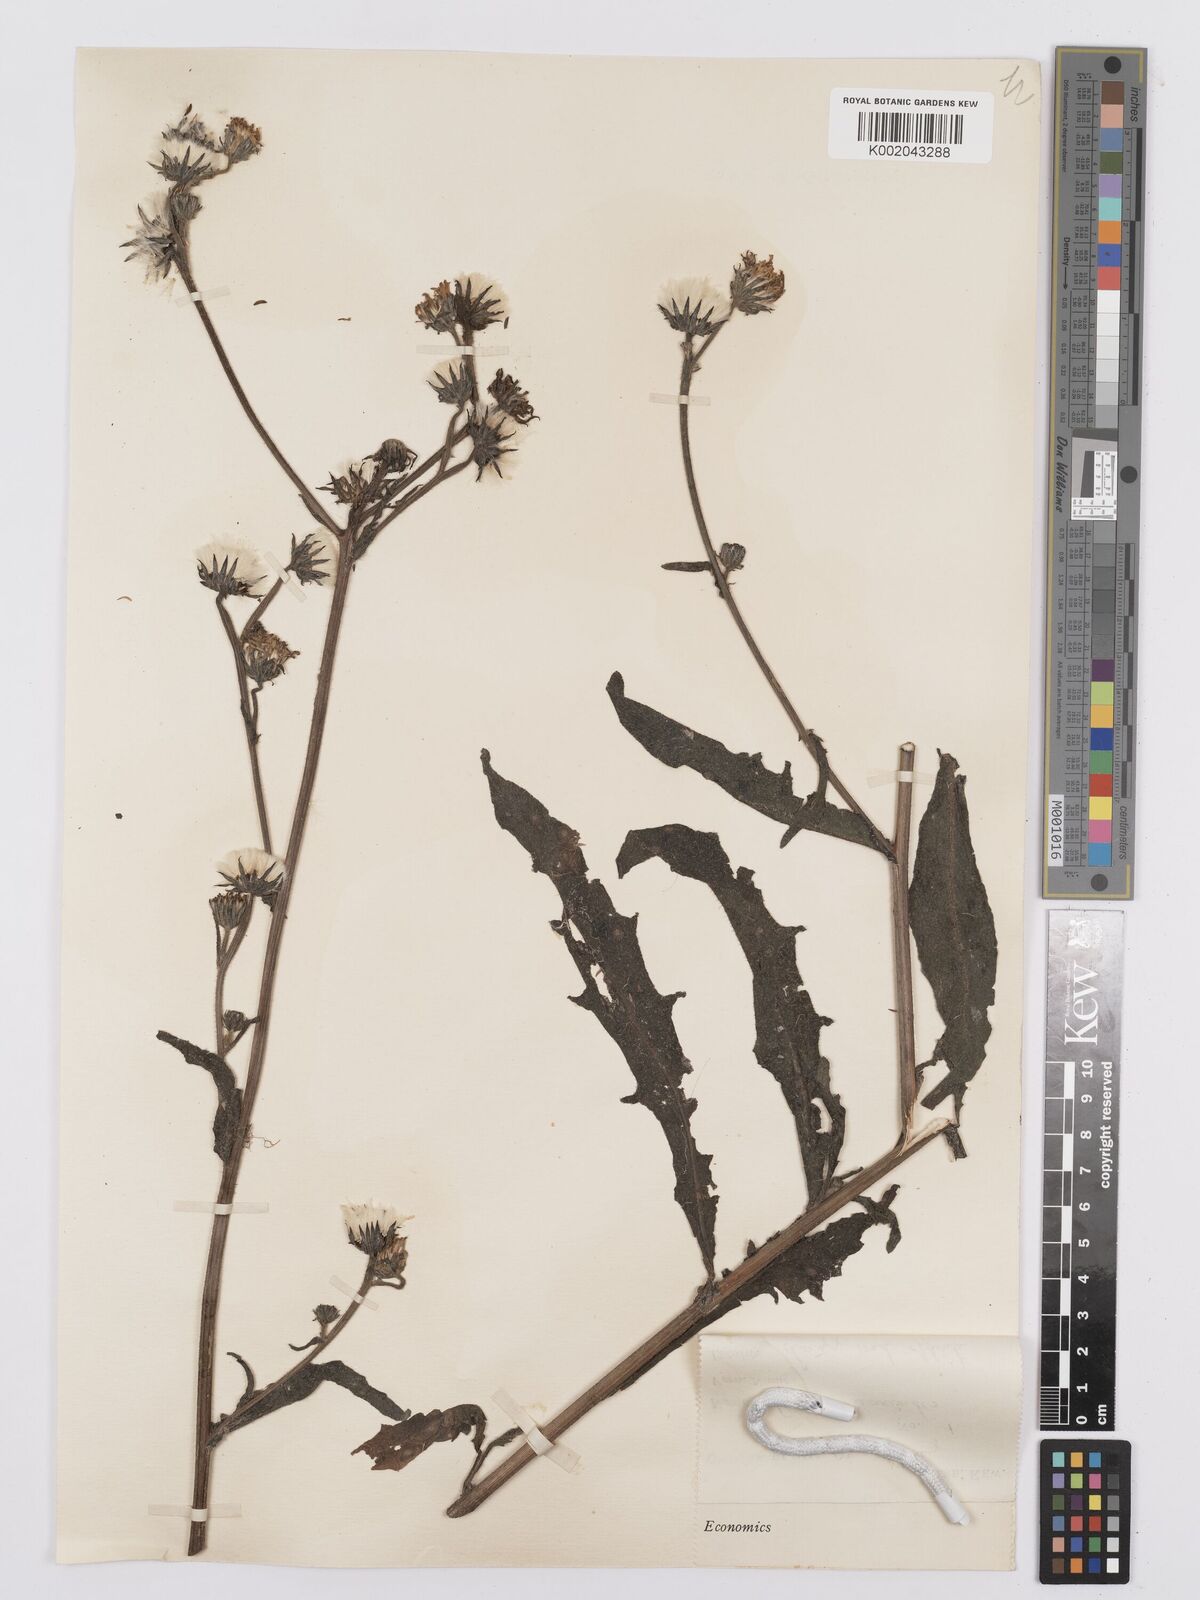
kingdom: Plantae
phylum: Tracheophyta
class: Magnoliopsida
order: Asterales
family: Asteraceae
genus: Picris
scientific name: Picris hieracioides
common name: Hawkweed oxtongue
